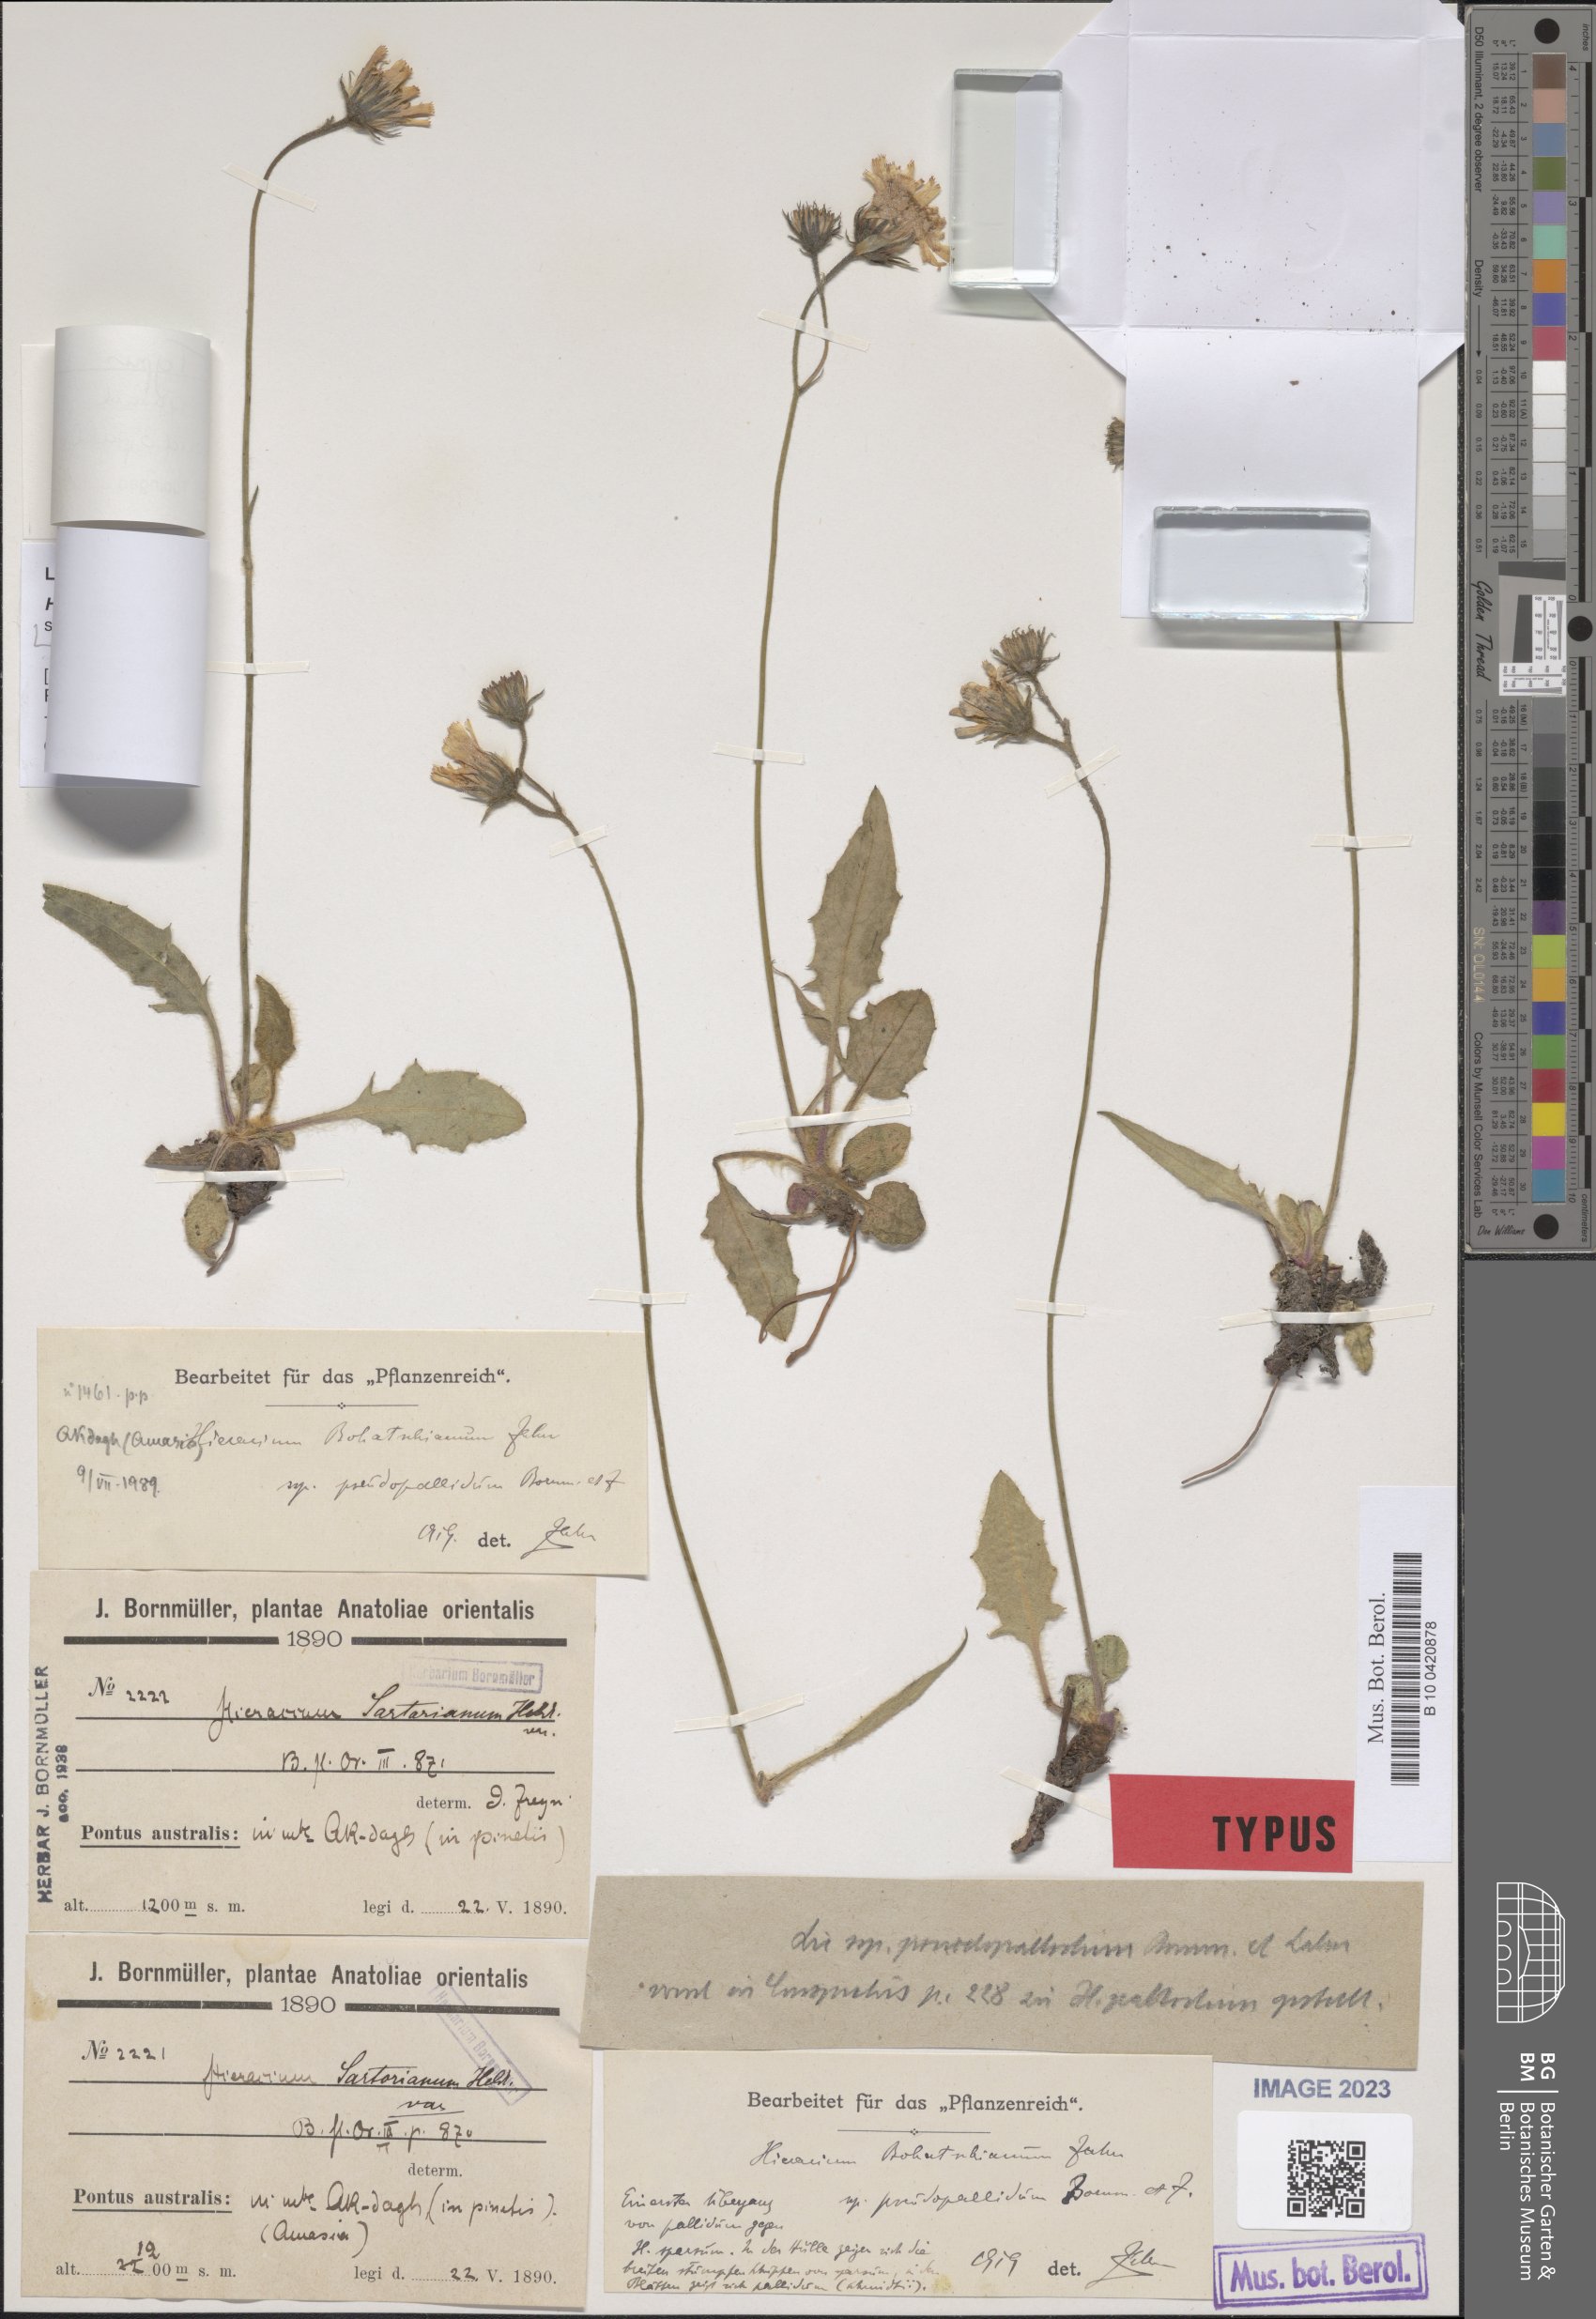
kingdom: Plantae
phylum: Tracheophyta
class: Magnoliopsida
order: Asterales
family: Asteraceae
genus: Hieracium
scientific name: Hieracium schmidtii
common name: Schmidt's hawkweed
